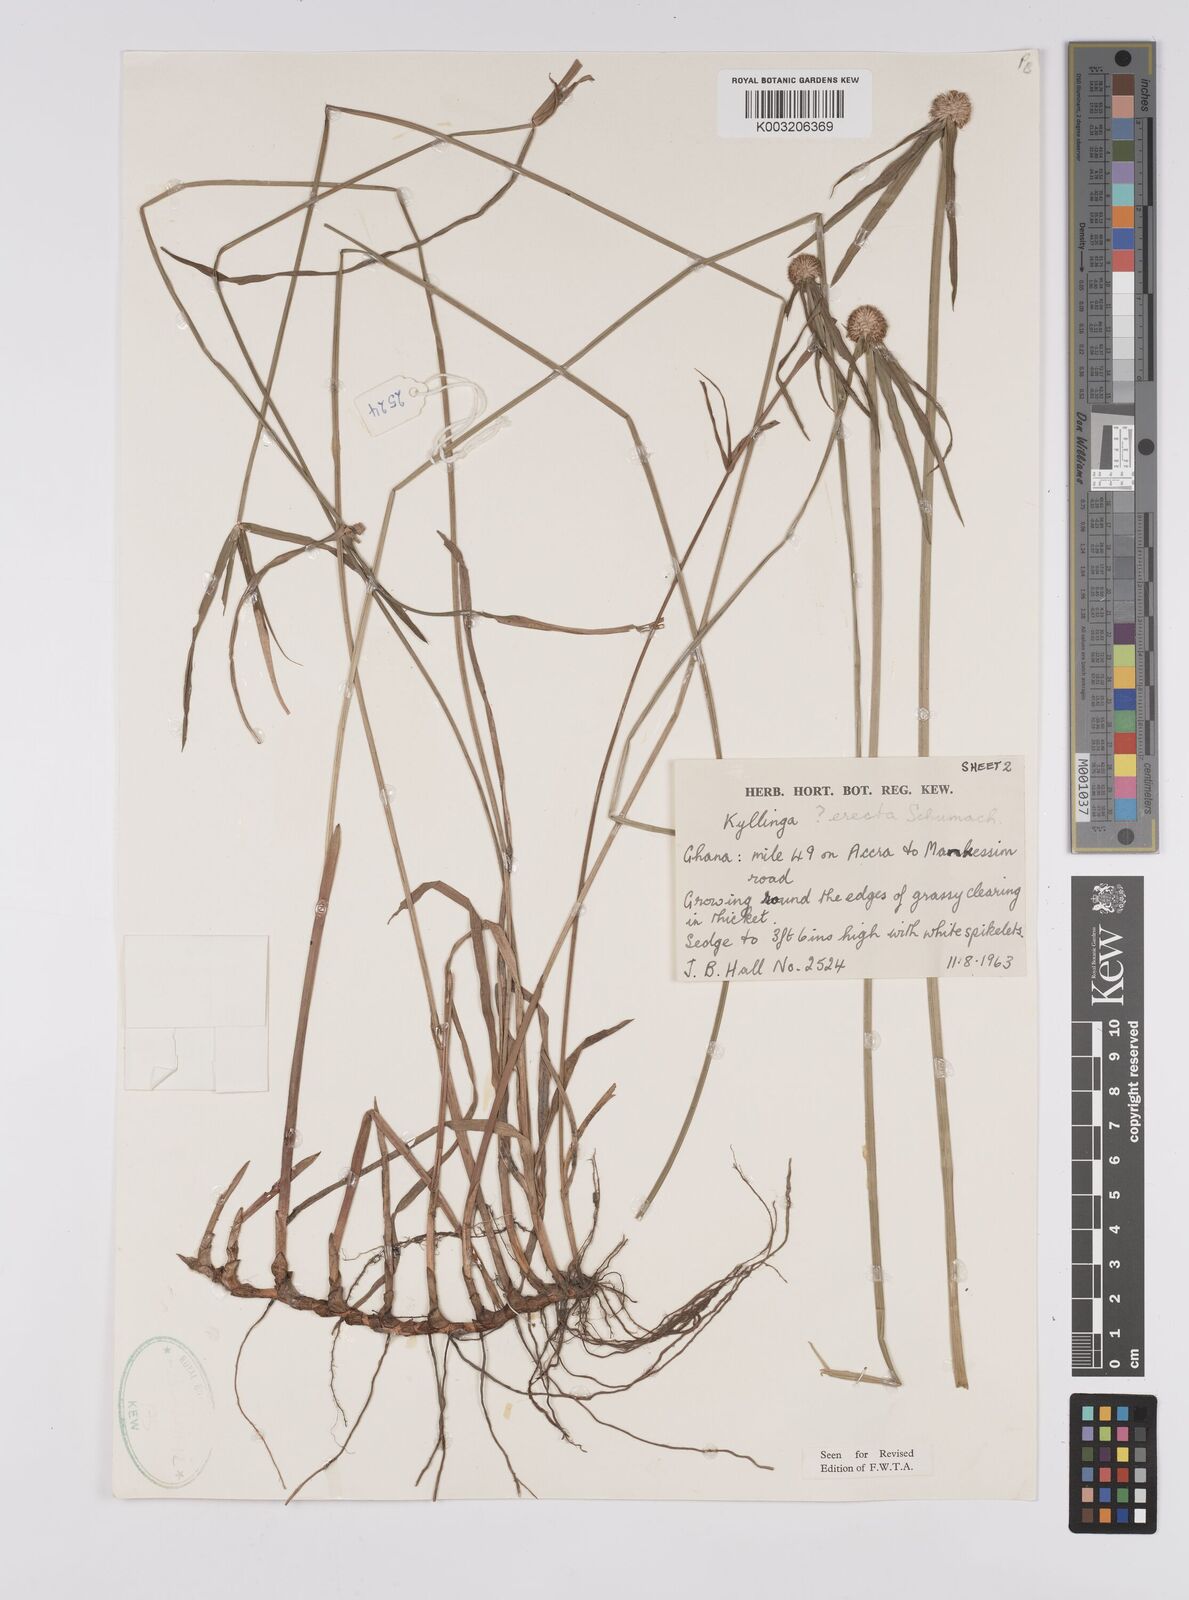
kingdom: Plantae
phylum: Tracheophyta
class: Liliopsida
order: Poales
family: Cyperaceae
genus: Cyperus
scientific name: Cyperus erectus
